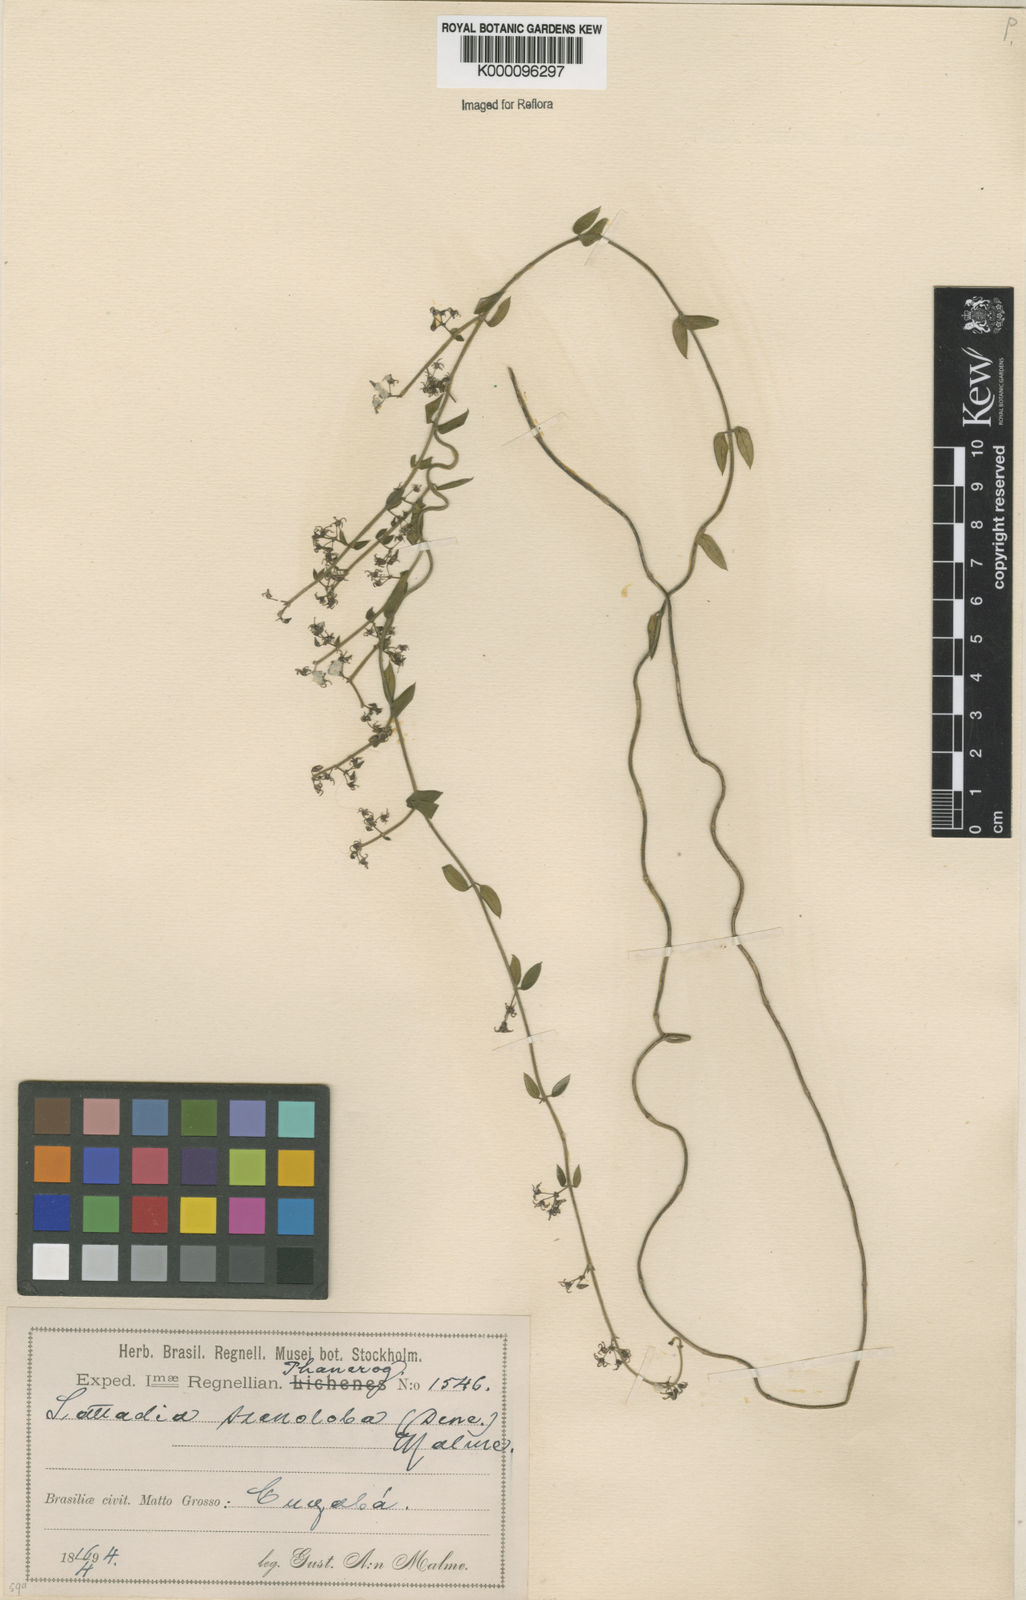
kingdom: Plantae
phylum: Tracheophyta
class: Magnoliopsida
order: Gentianales
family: Apocynaceae
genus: Tassadia
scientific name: Tassadia
